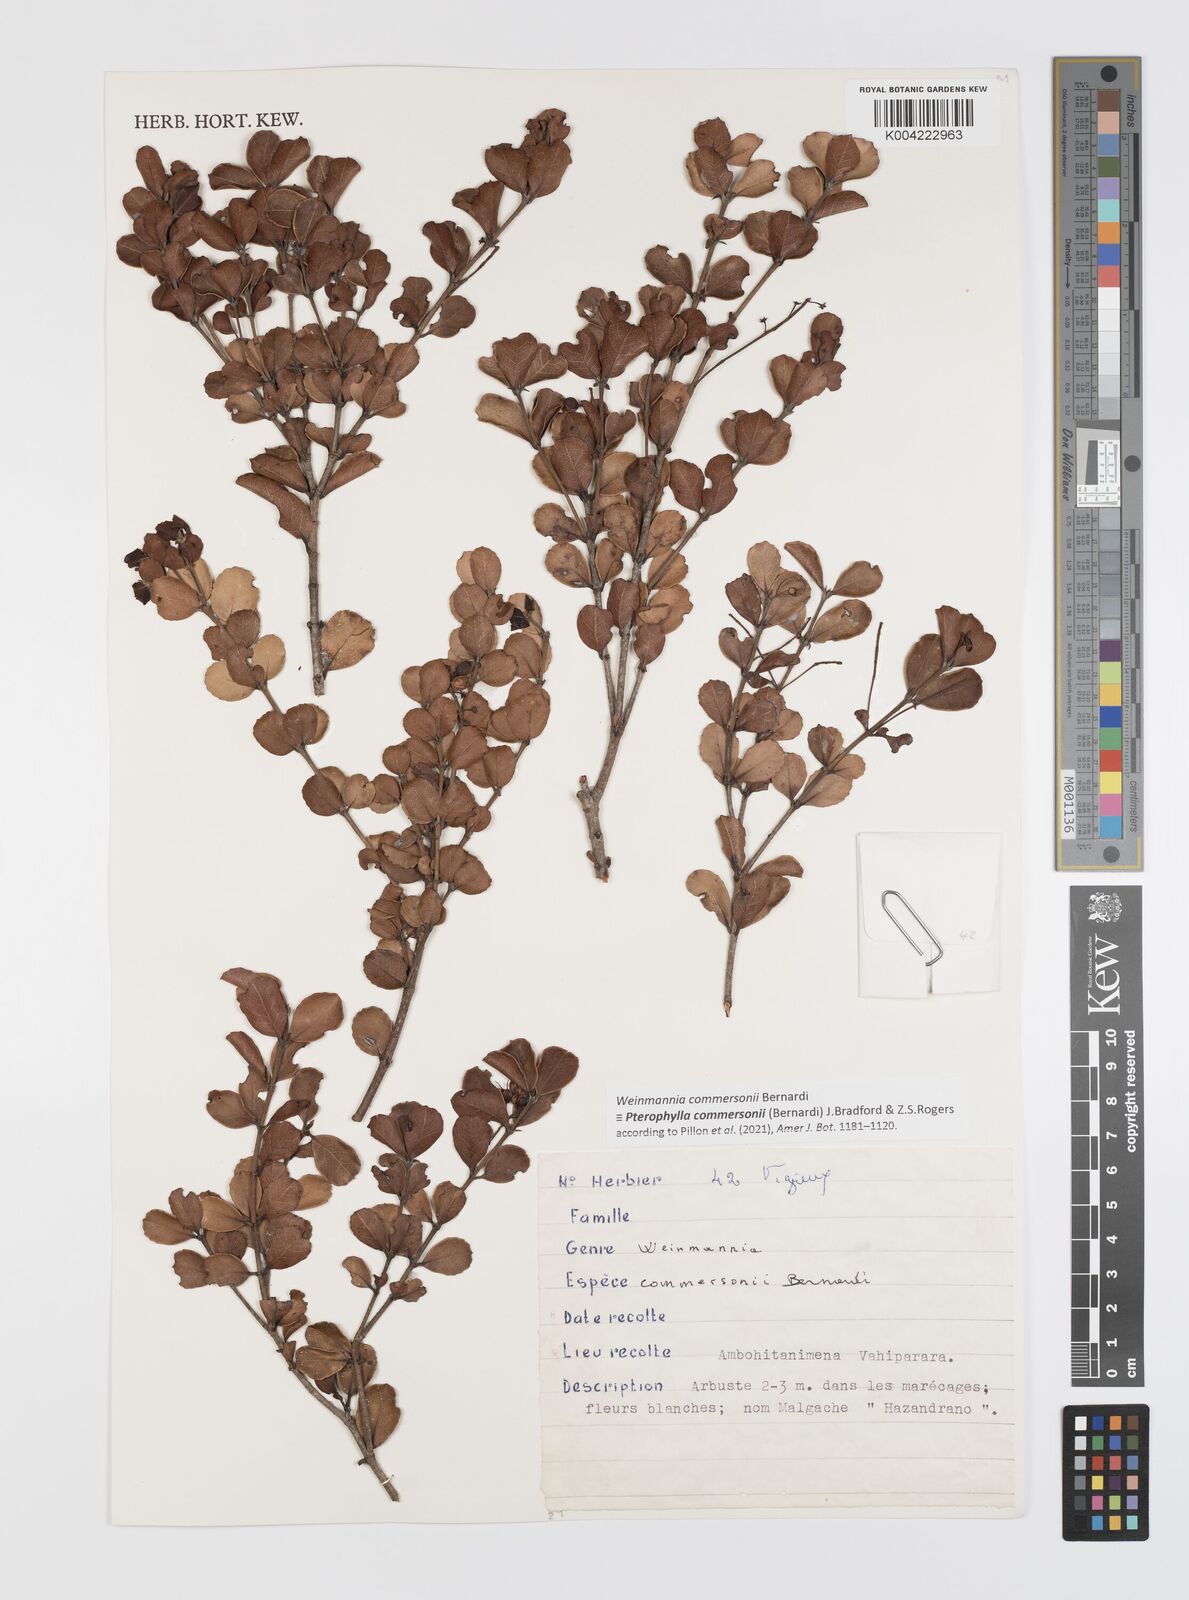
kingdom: Plantae
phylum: Tracheophyta
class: Magnoliopsida
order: Oxalidales
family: Cunoniaceae
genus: Pterophylla
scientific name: Pterophylla commersonii
